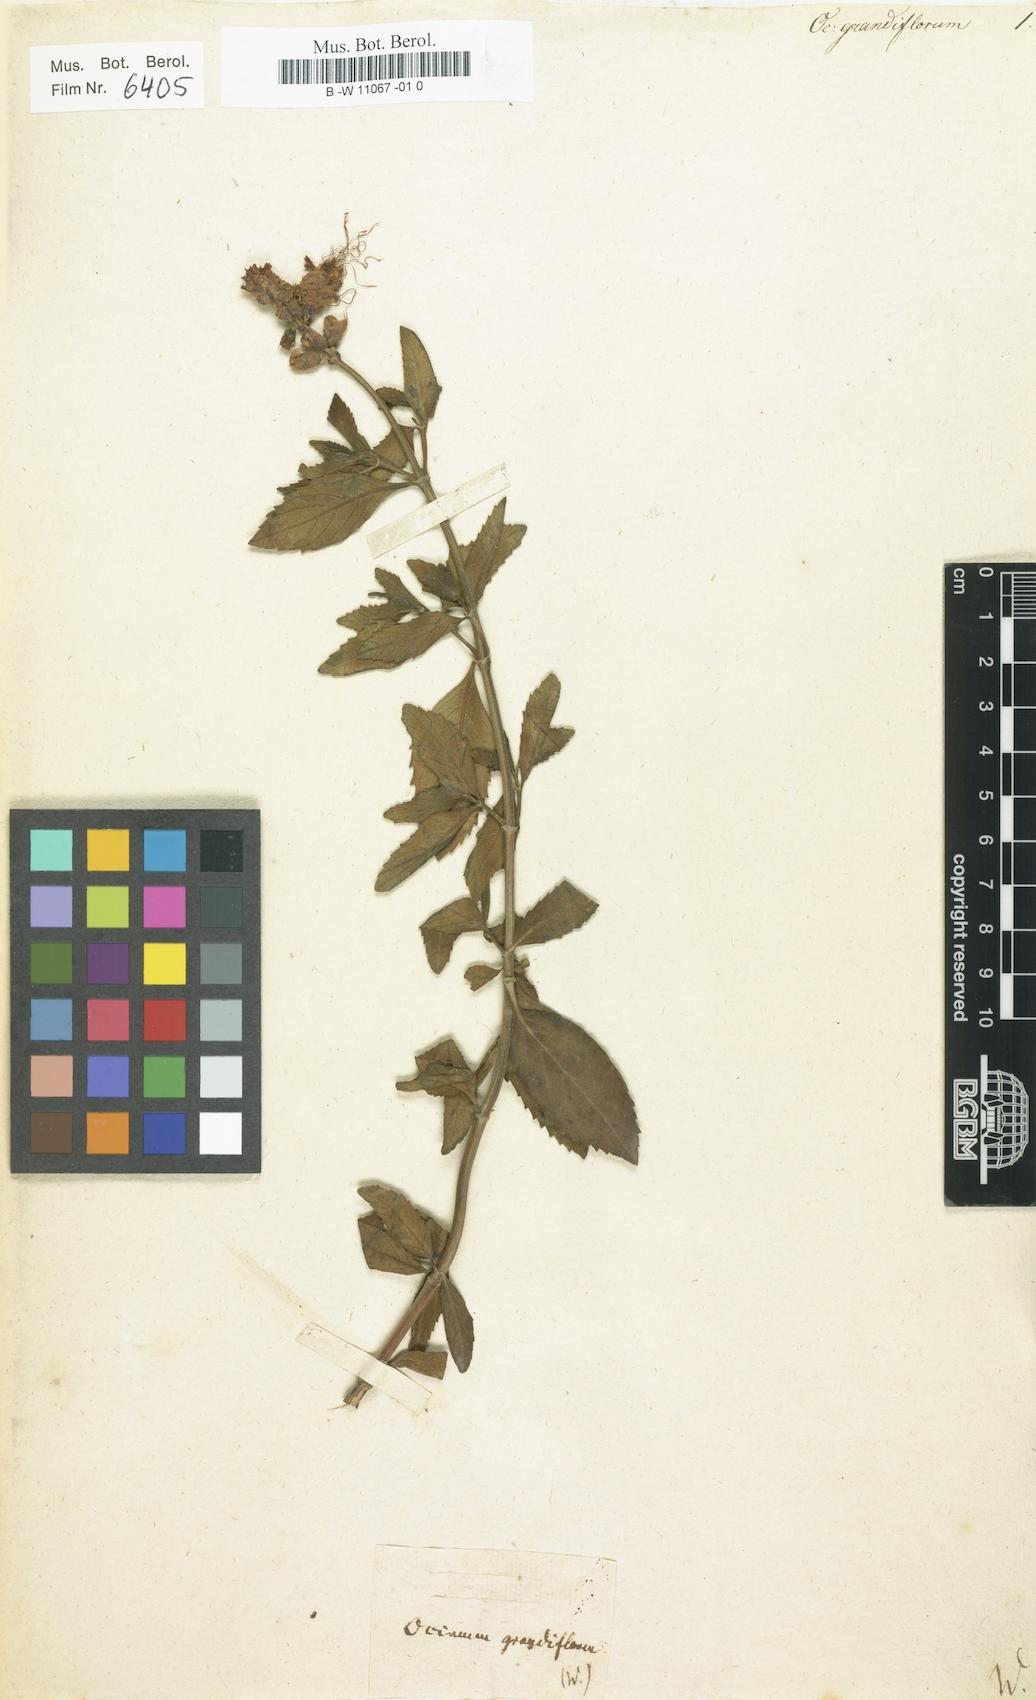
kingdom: Plantae
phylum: Tracheophyta
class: Magnoliopsida
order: Lamiales
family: Lamiaceae
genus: Ocimum
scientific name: Ocimum grandiflorum
